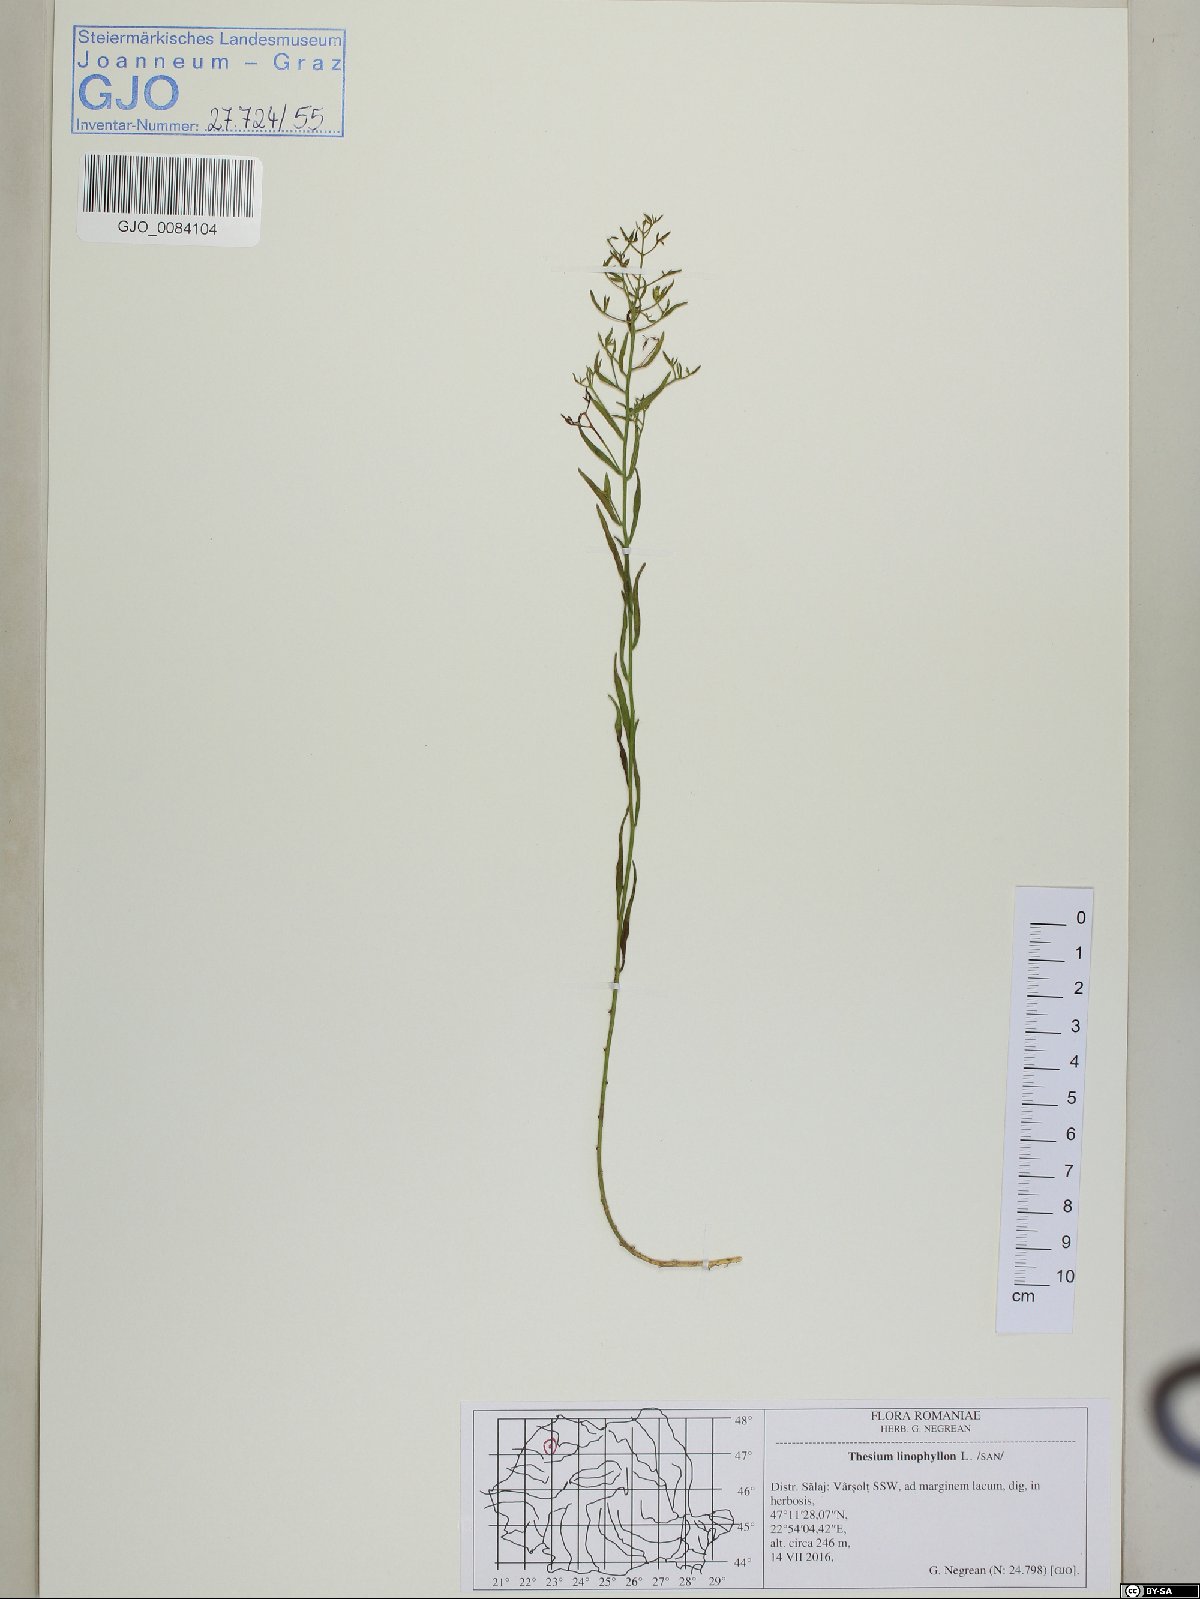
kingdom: Plantae
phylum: Tracheophyta
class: Magnoliopsida
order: Santalales
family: Thesiaceae
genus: Thesium
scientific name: Thesium linophyllon
